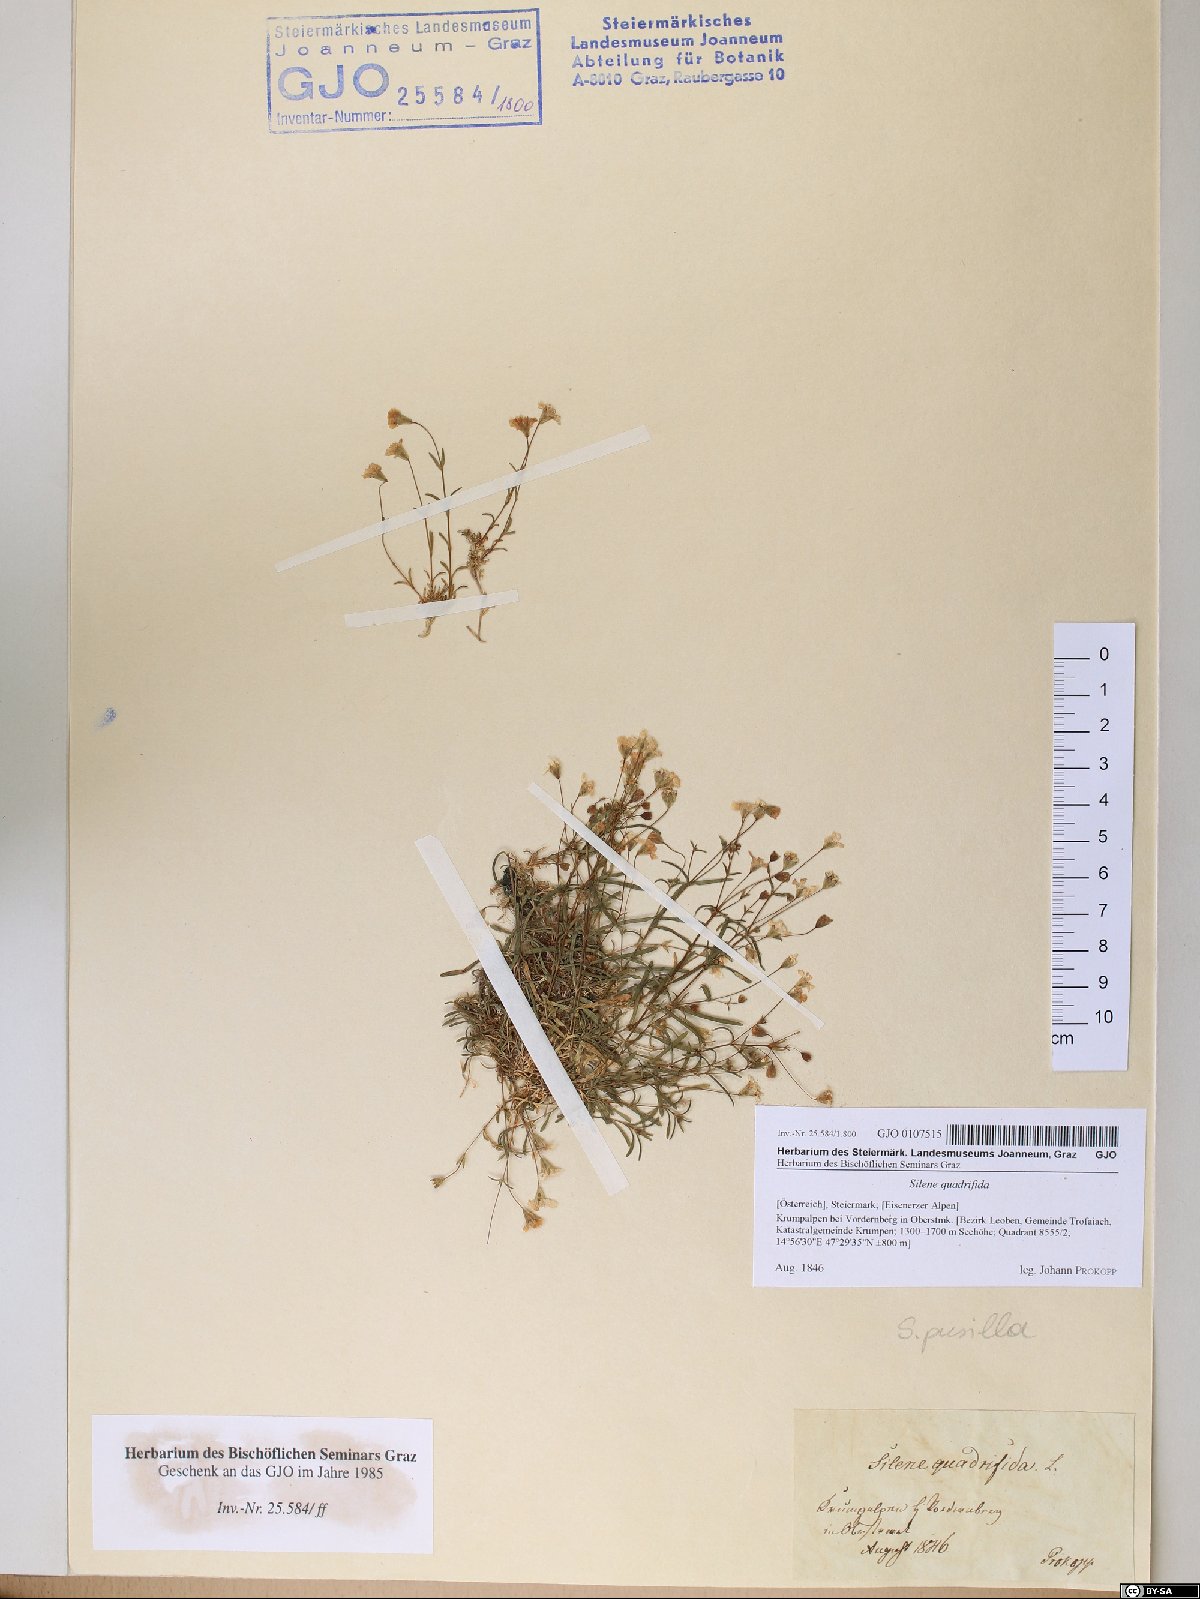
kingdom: Plantae
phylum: Tracheophyta
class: Magnoliopsida
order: Caryophyllales
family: Caryophyllaceae
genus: Heliosperma
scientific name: Heliosperma alpestre
